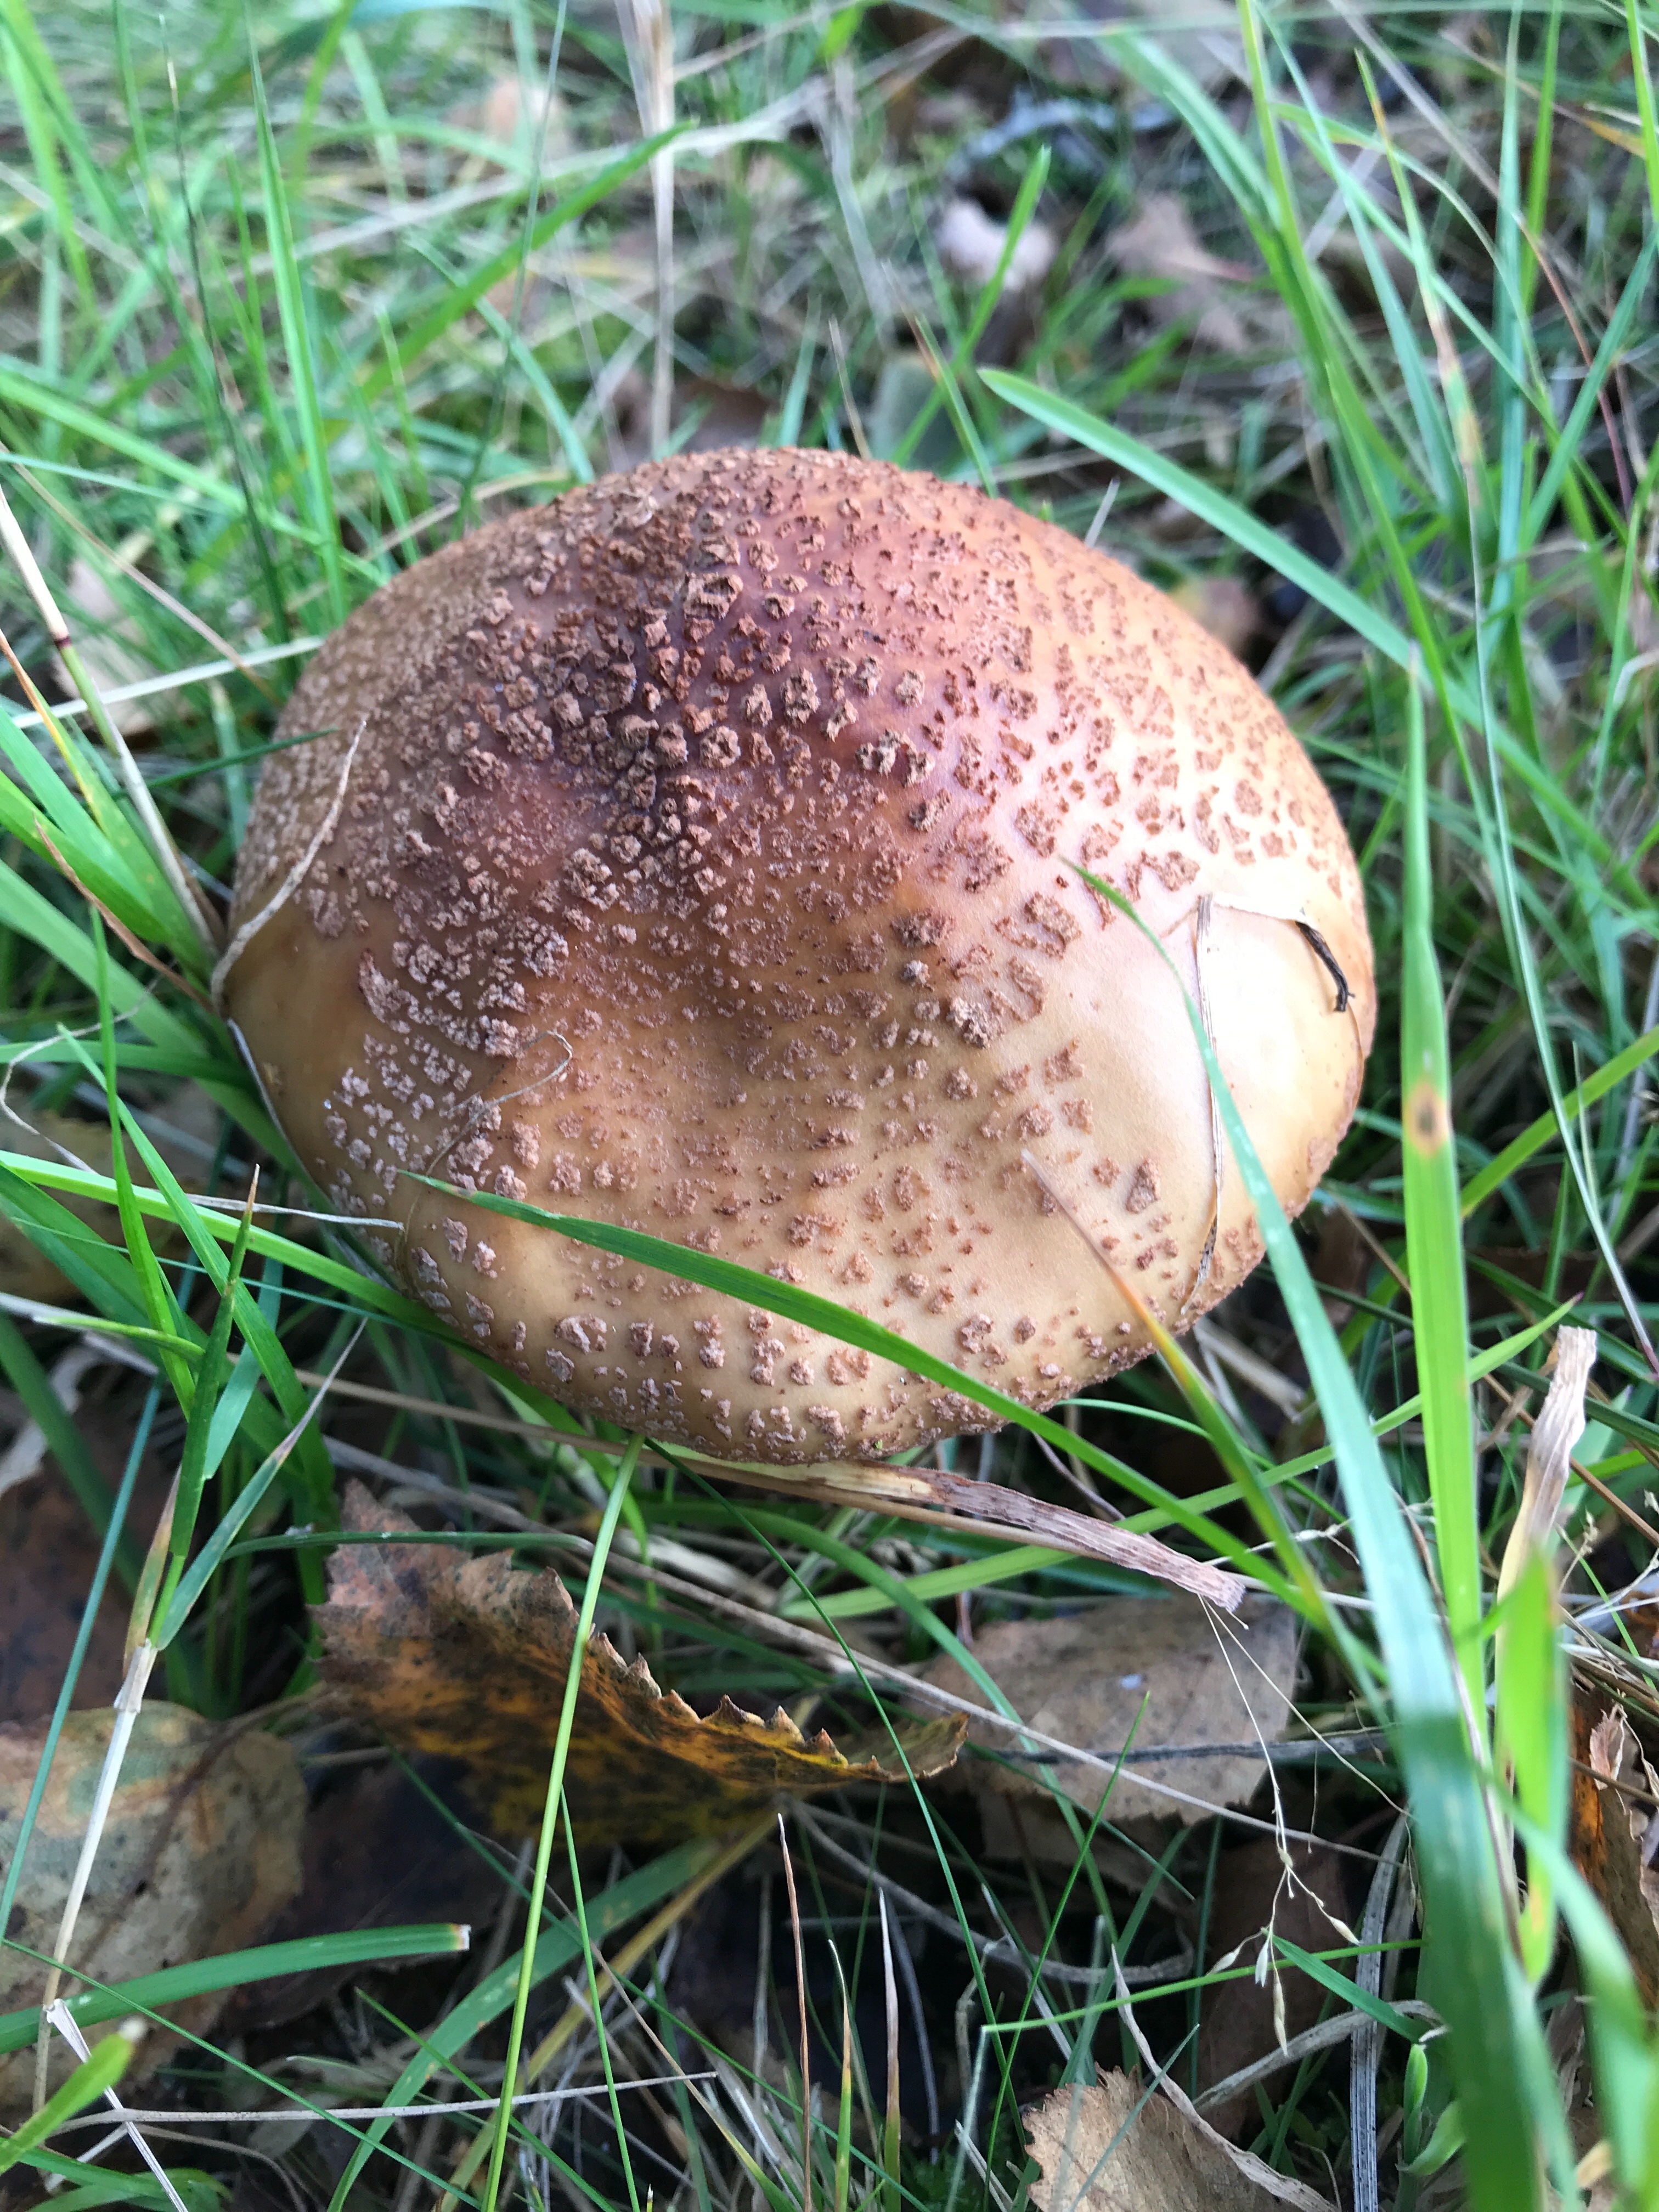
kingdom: Fungi
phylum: Basidiomycota
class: Agaricomycetes
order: Agaricales
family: Amanitaceae
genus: Amanita
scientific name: Amanita rubescens
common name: rødmende fluesvamp
